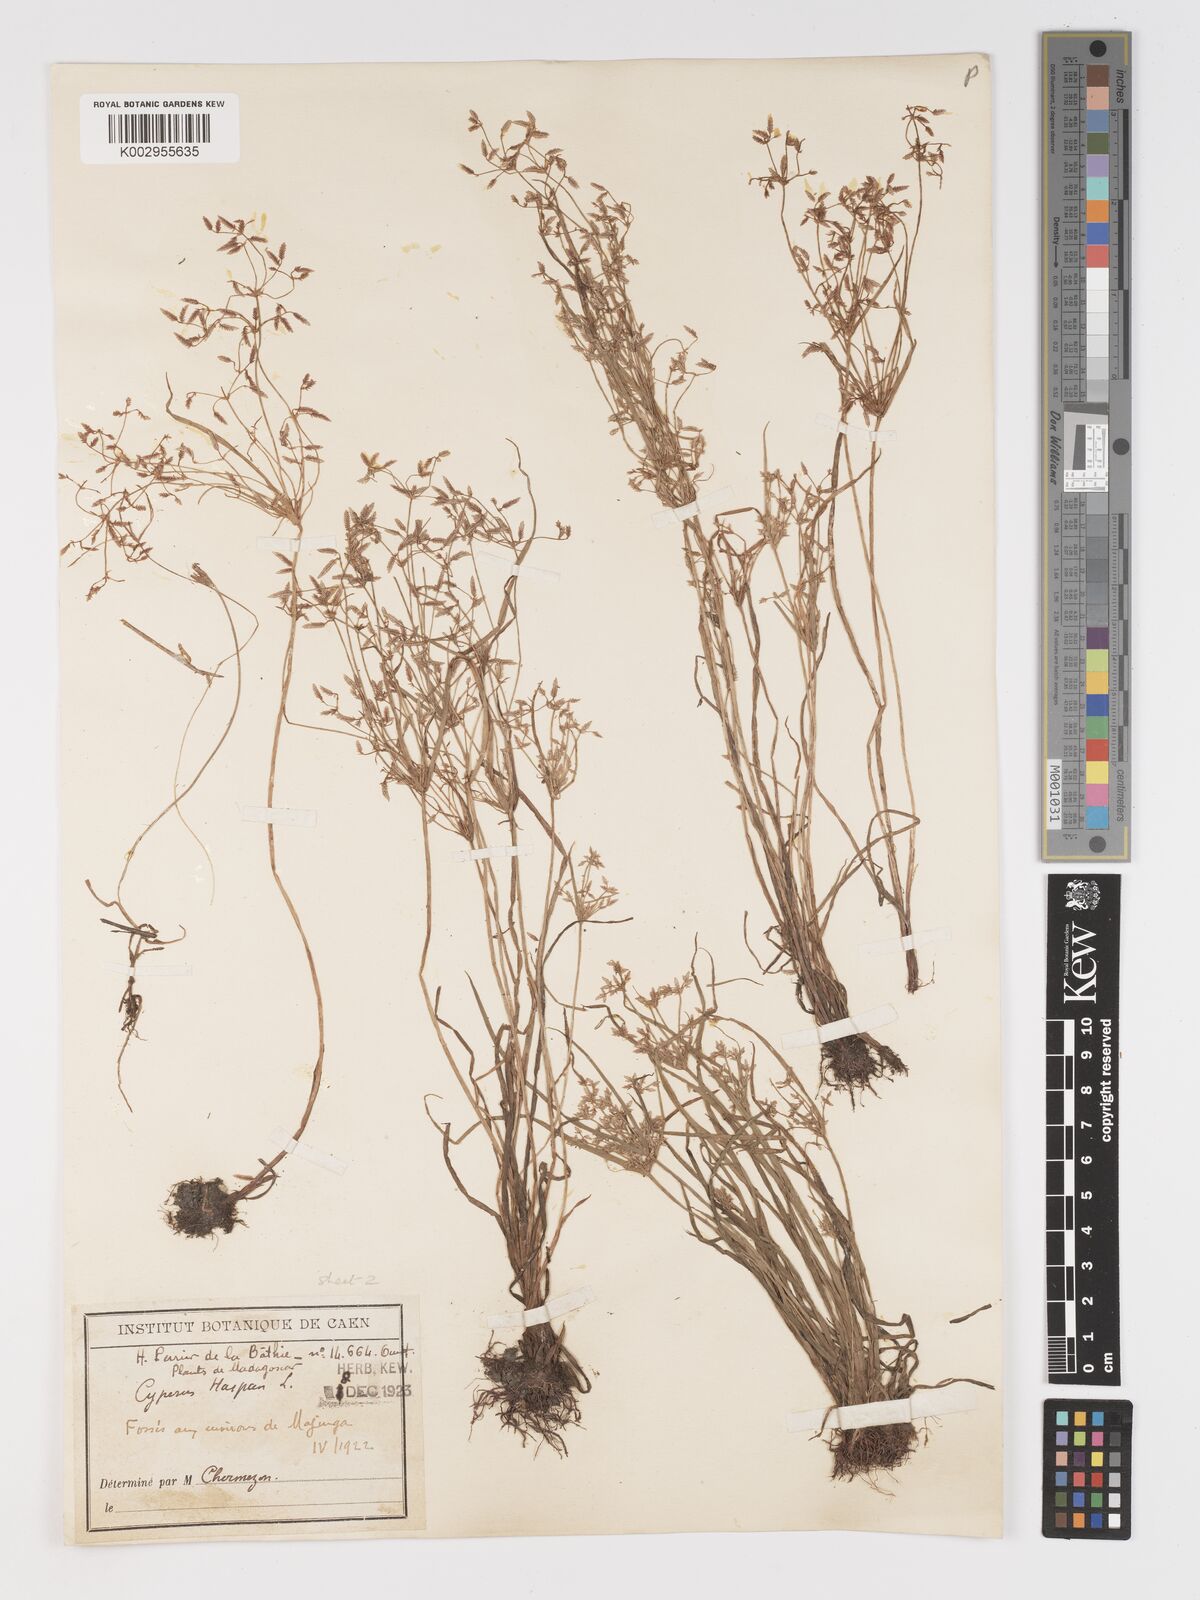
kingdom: Plantae
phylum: Tracheophyta
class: Liliopsida
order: Poales
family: Cyperaceae
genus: Cyperus
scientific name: Cyperus haspan
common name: Haspan flatsedge
